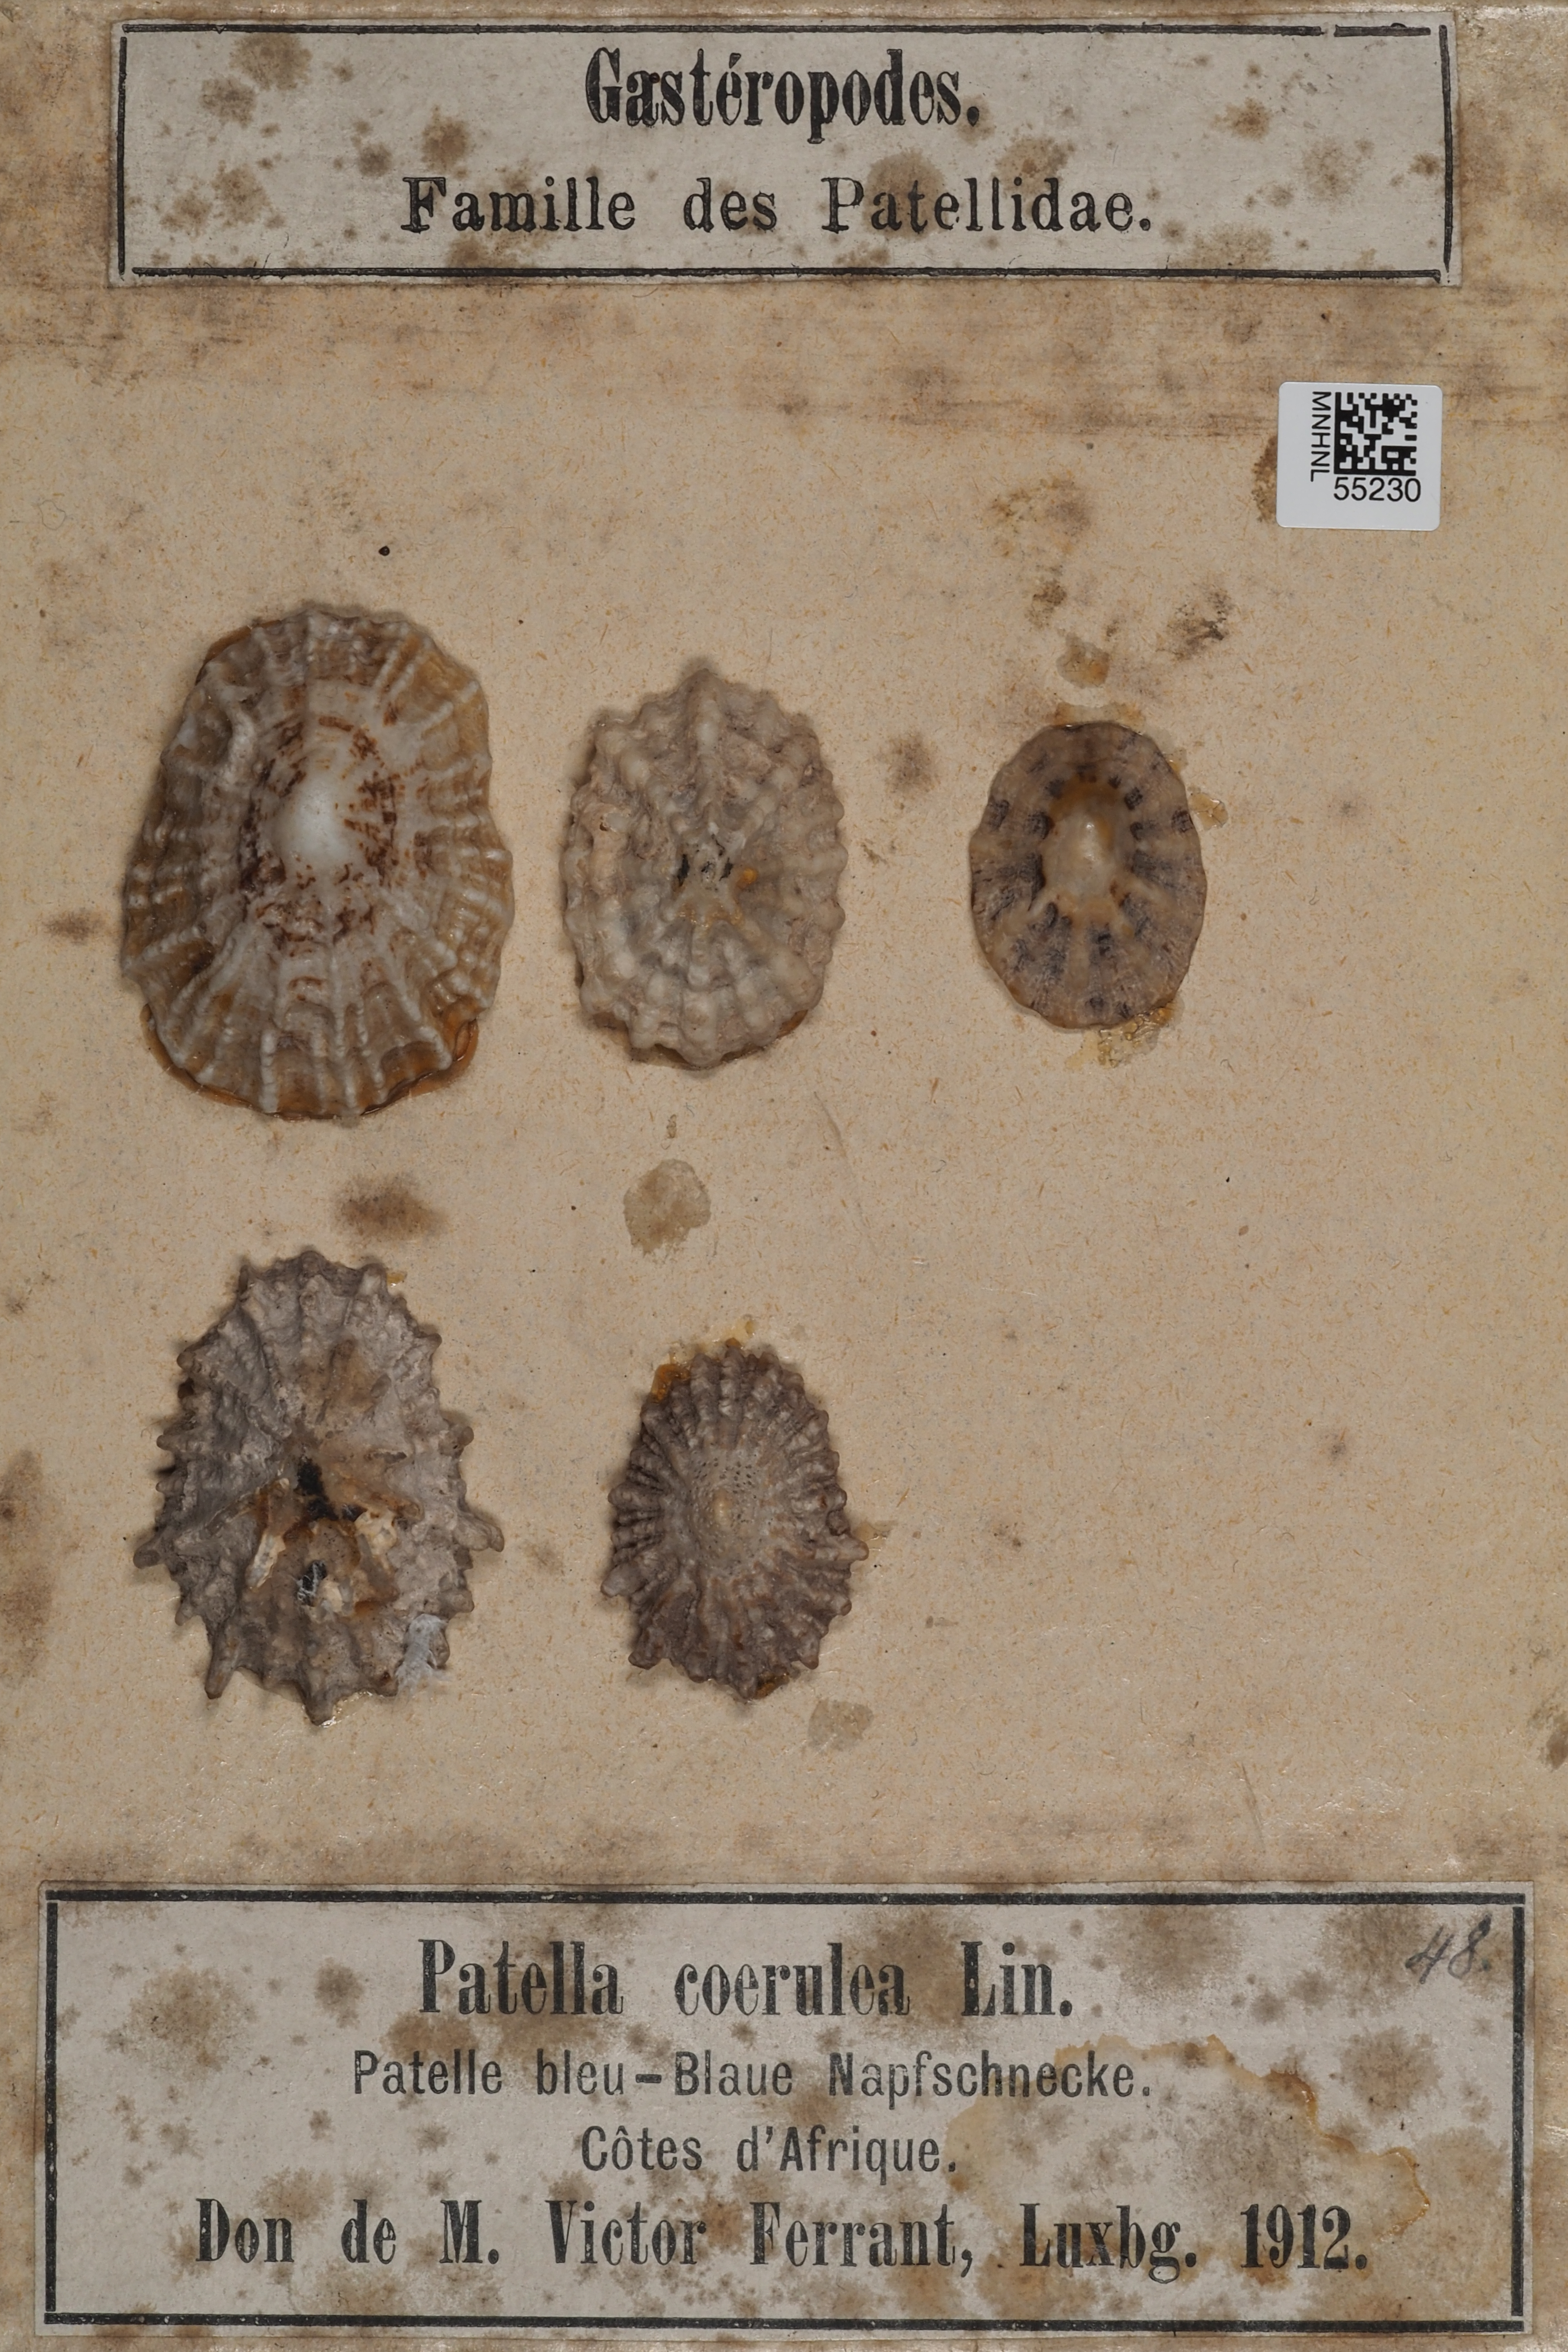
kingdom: Animalia
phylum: Mollusca
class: Gastropoda
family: Patellidae
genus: Patella
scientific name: Patella caerulea
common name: Mediterranean limpet
